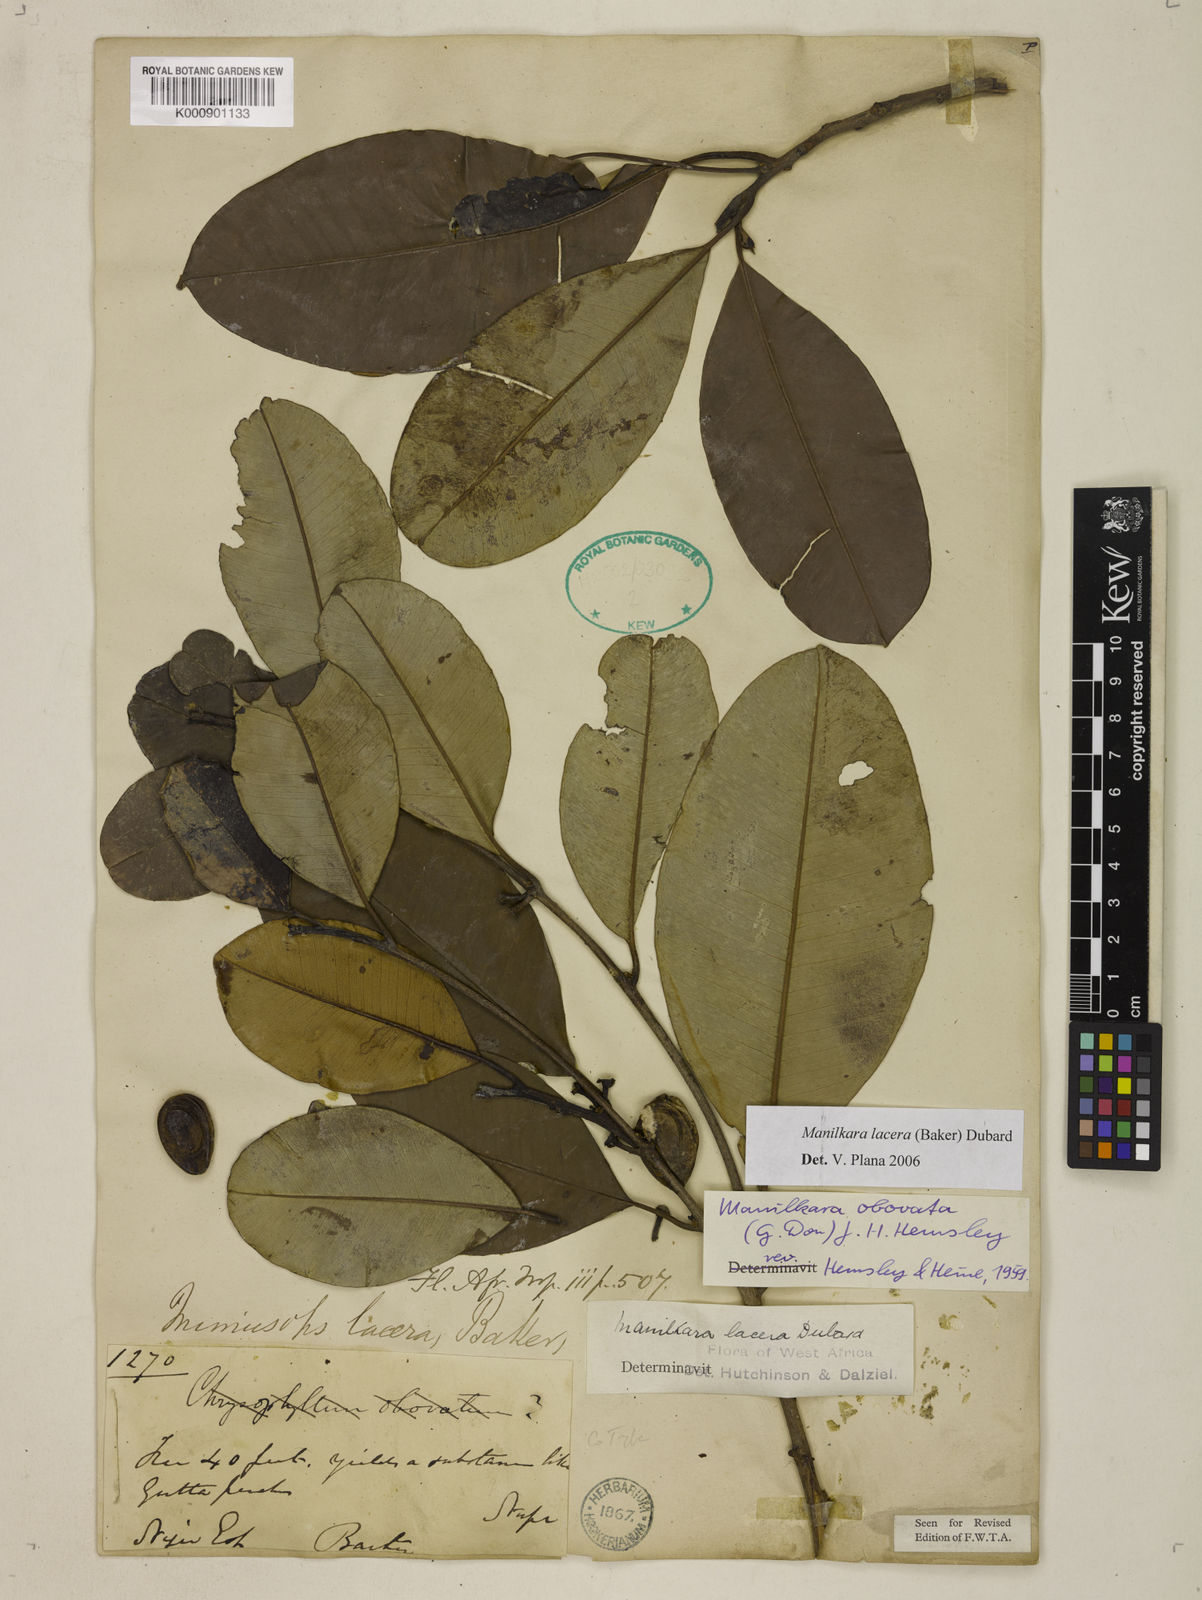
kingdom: Plantae
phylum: Tracheophyta
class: Magnoliopsida
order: Ericales
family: Sapotaceae
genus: Manilkara
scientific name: Manilkara obovata
